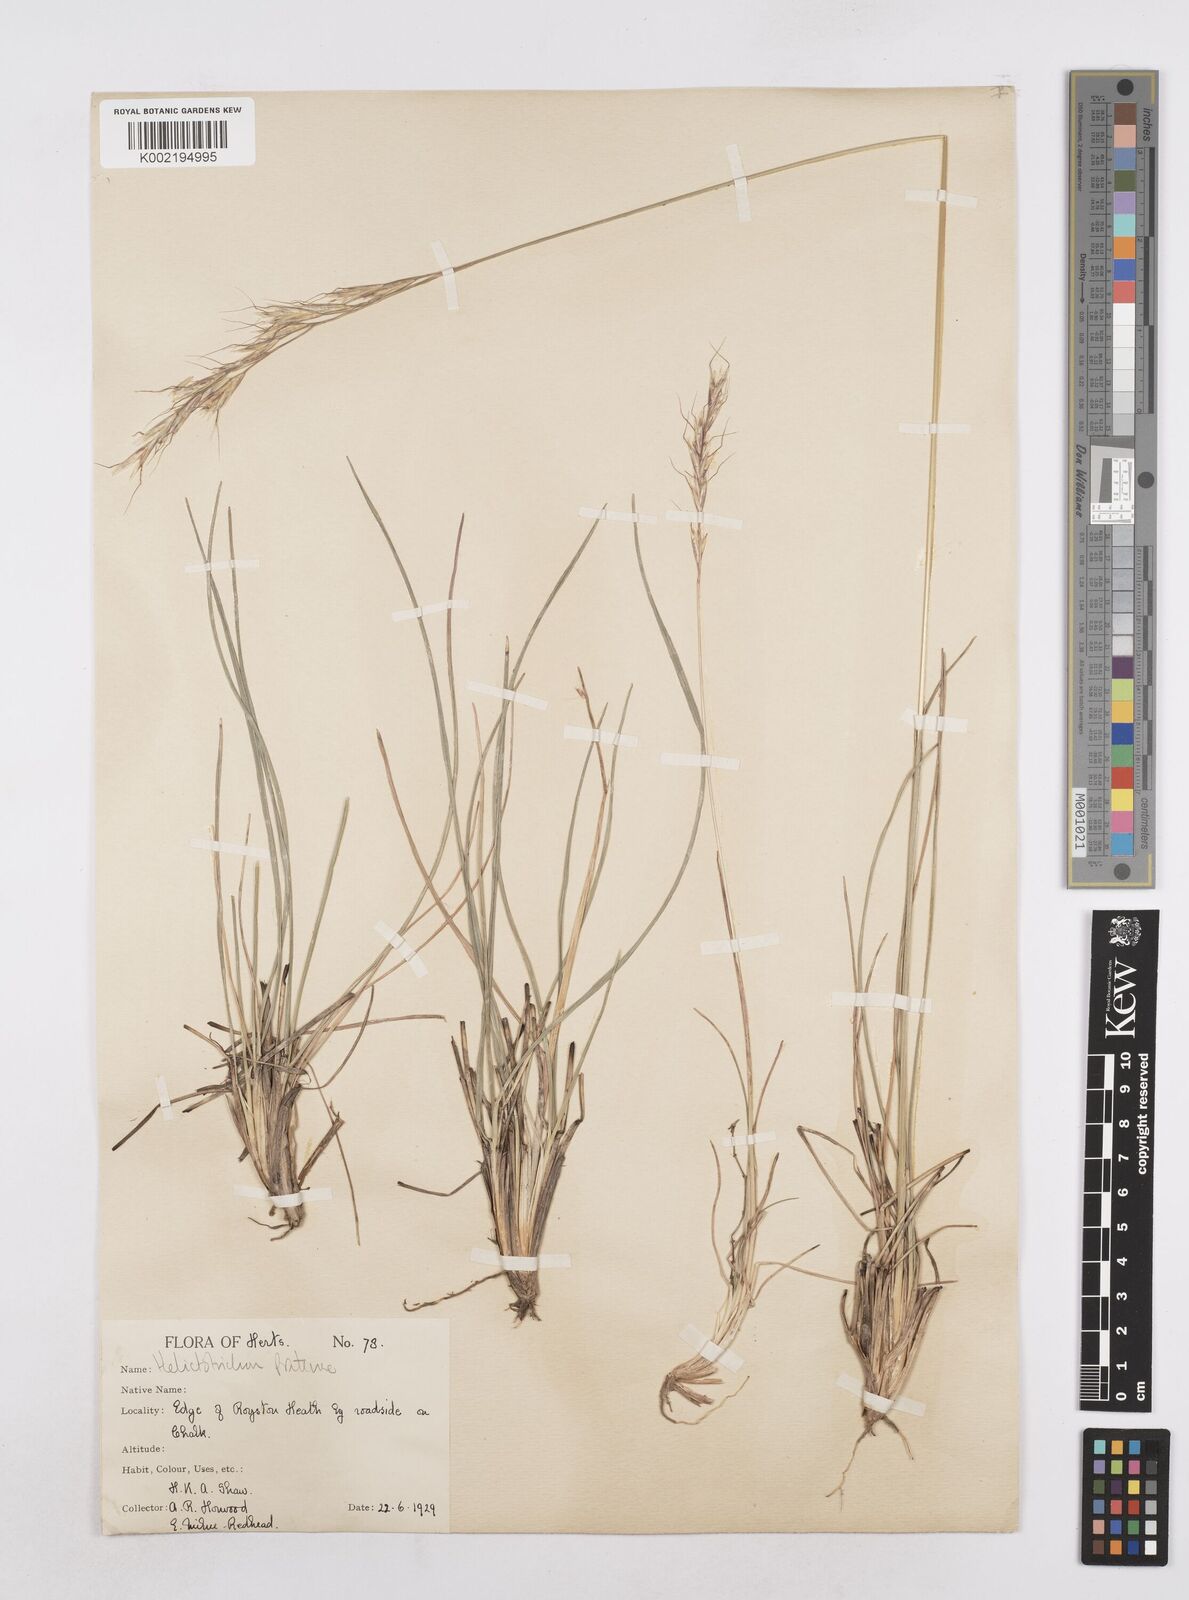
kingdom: Plantae
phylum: Tracheophyta
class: Liliopsida
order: Poales
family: Poaceae
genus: Helictochloa
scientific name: Helictochloa pratensis
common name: Meadow oat grass
